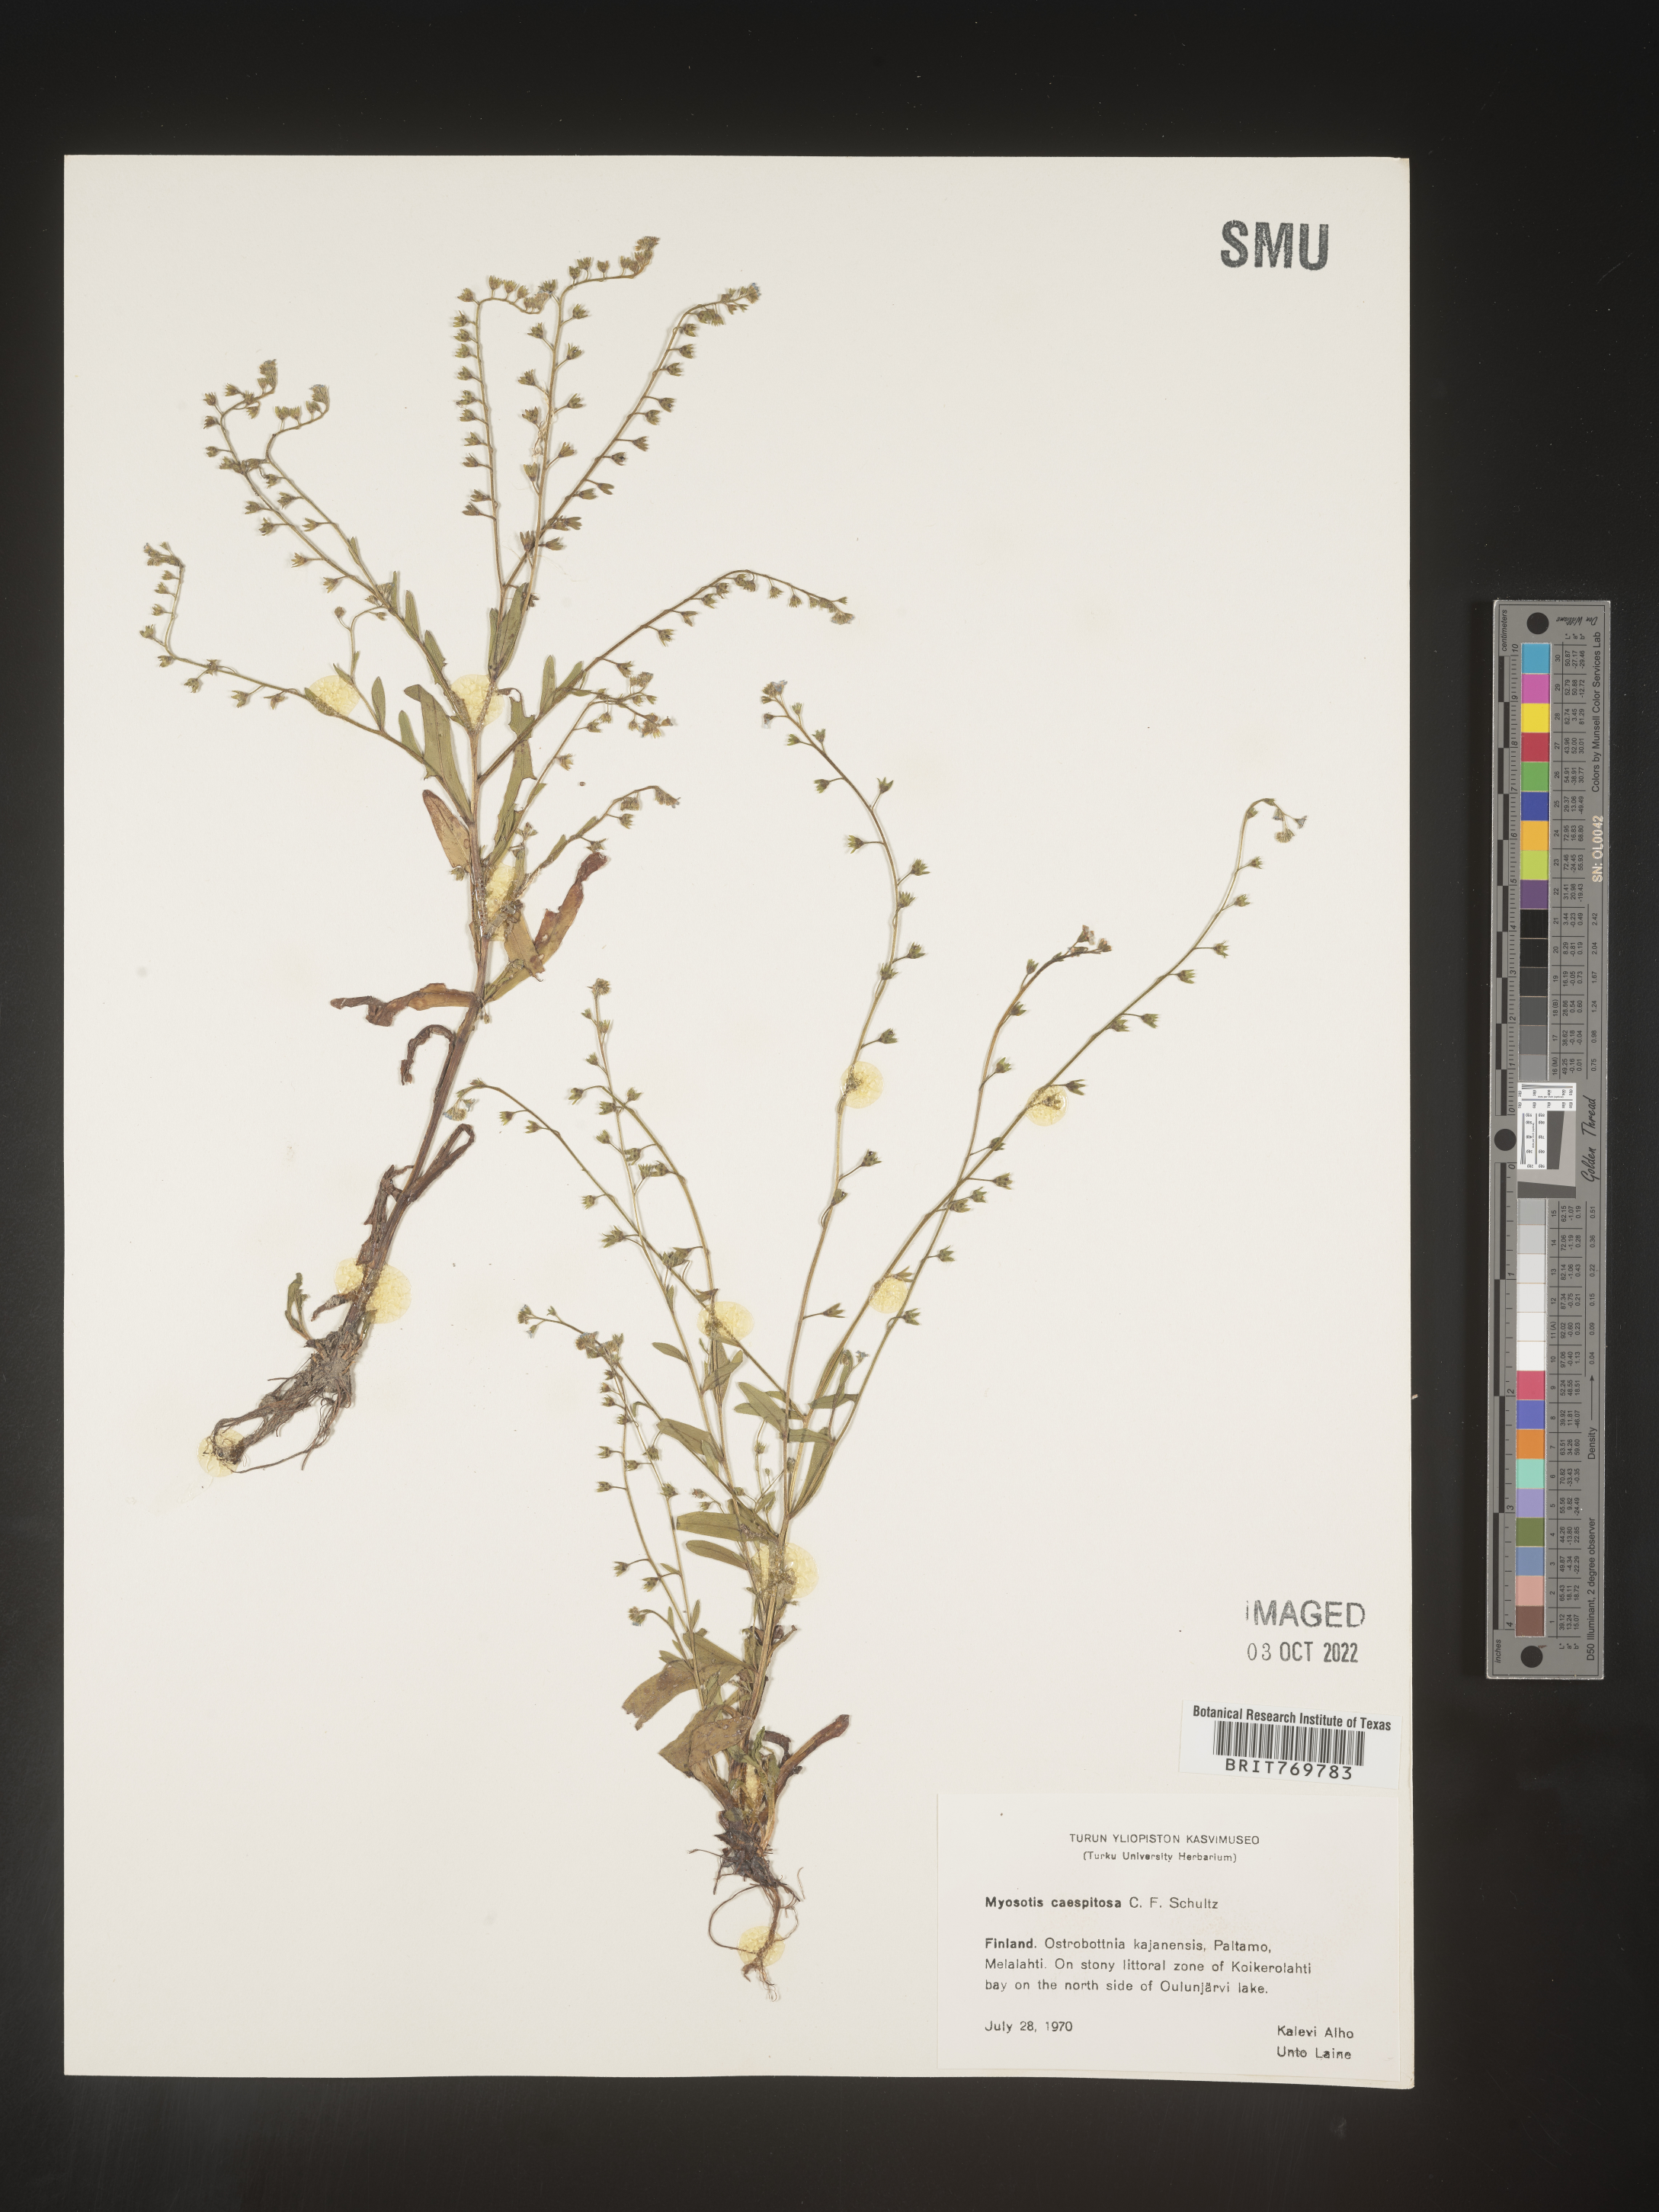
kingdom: Plantae
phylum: Tracheophyta
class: Magnoliopsida
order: Boraginales
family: Boraginaceae
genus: Myosotis
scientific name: Myosotis
